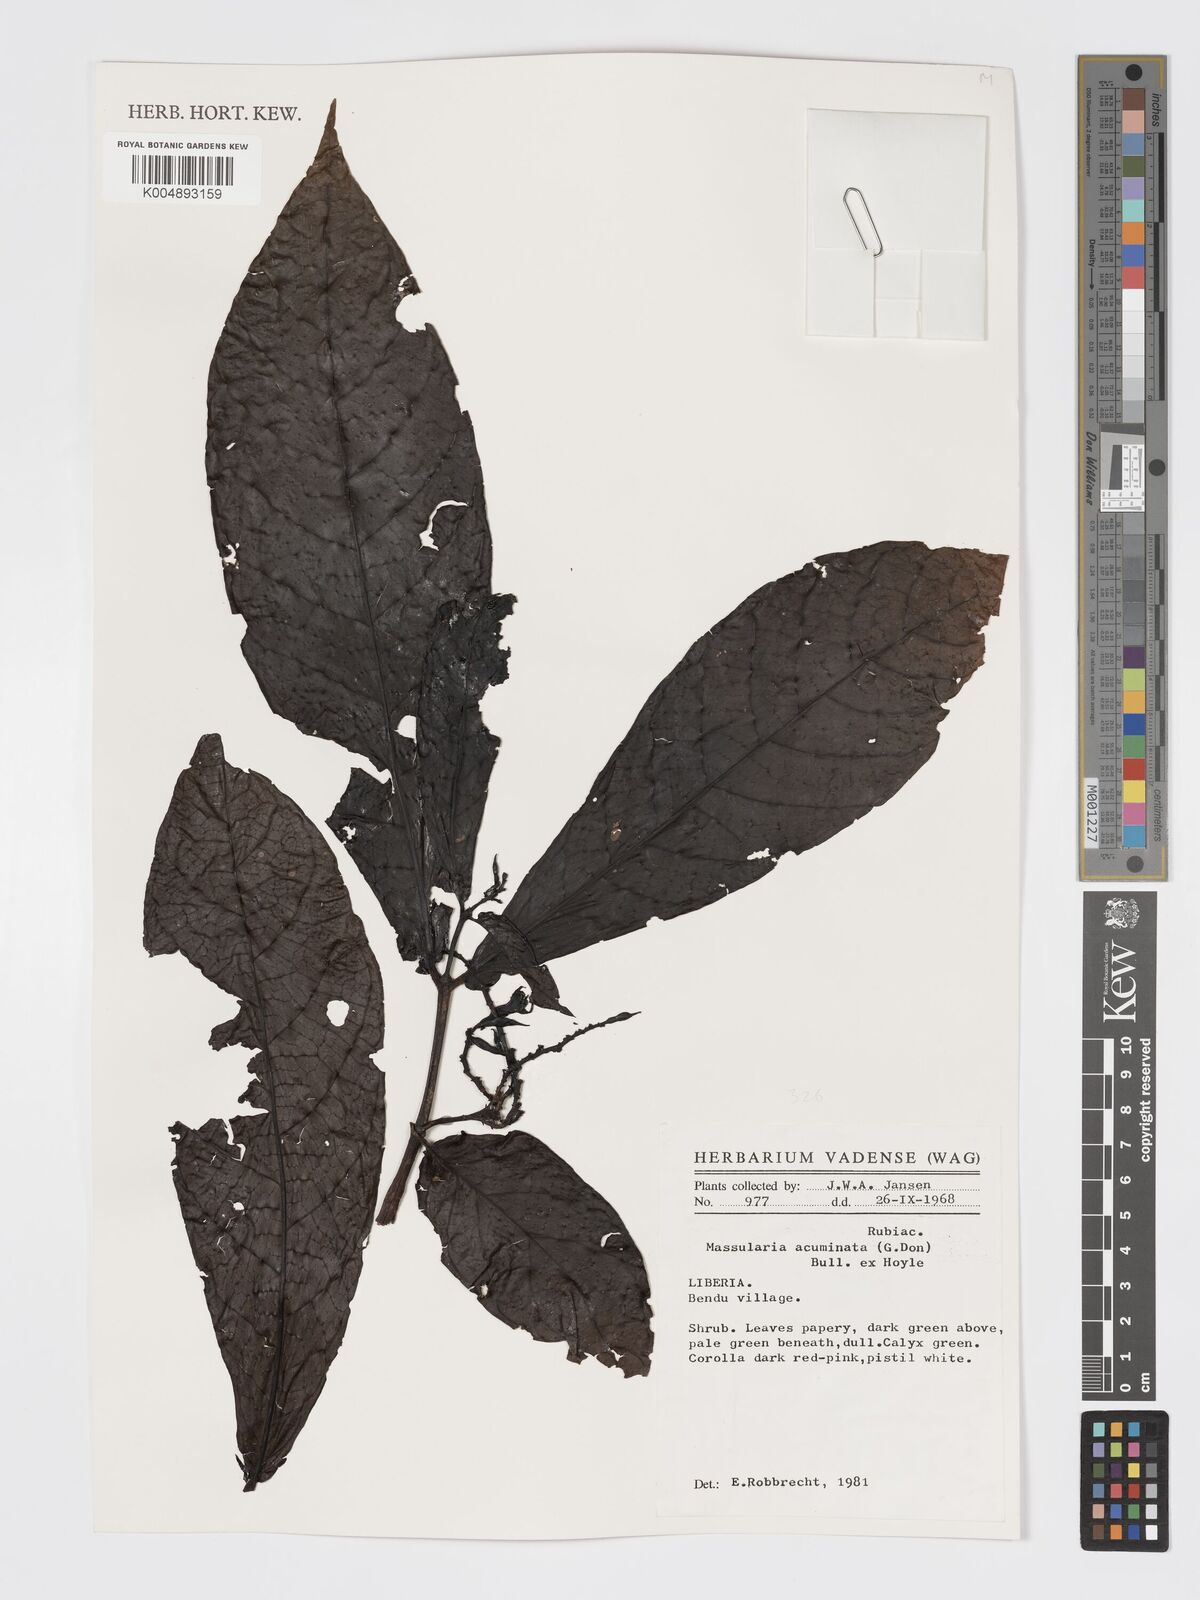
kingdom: Plantae
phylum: Tracheophyta
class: Magnoliopsida
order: Gentianales
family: Rubiaceae
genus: Massularia
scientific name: Massularia acuminata
